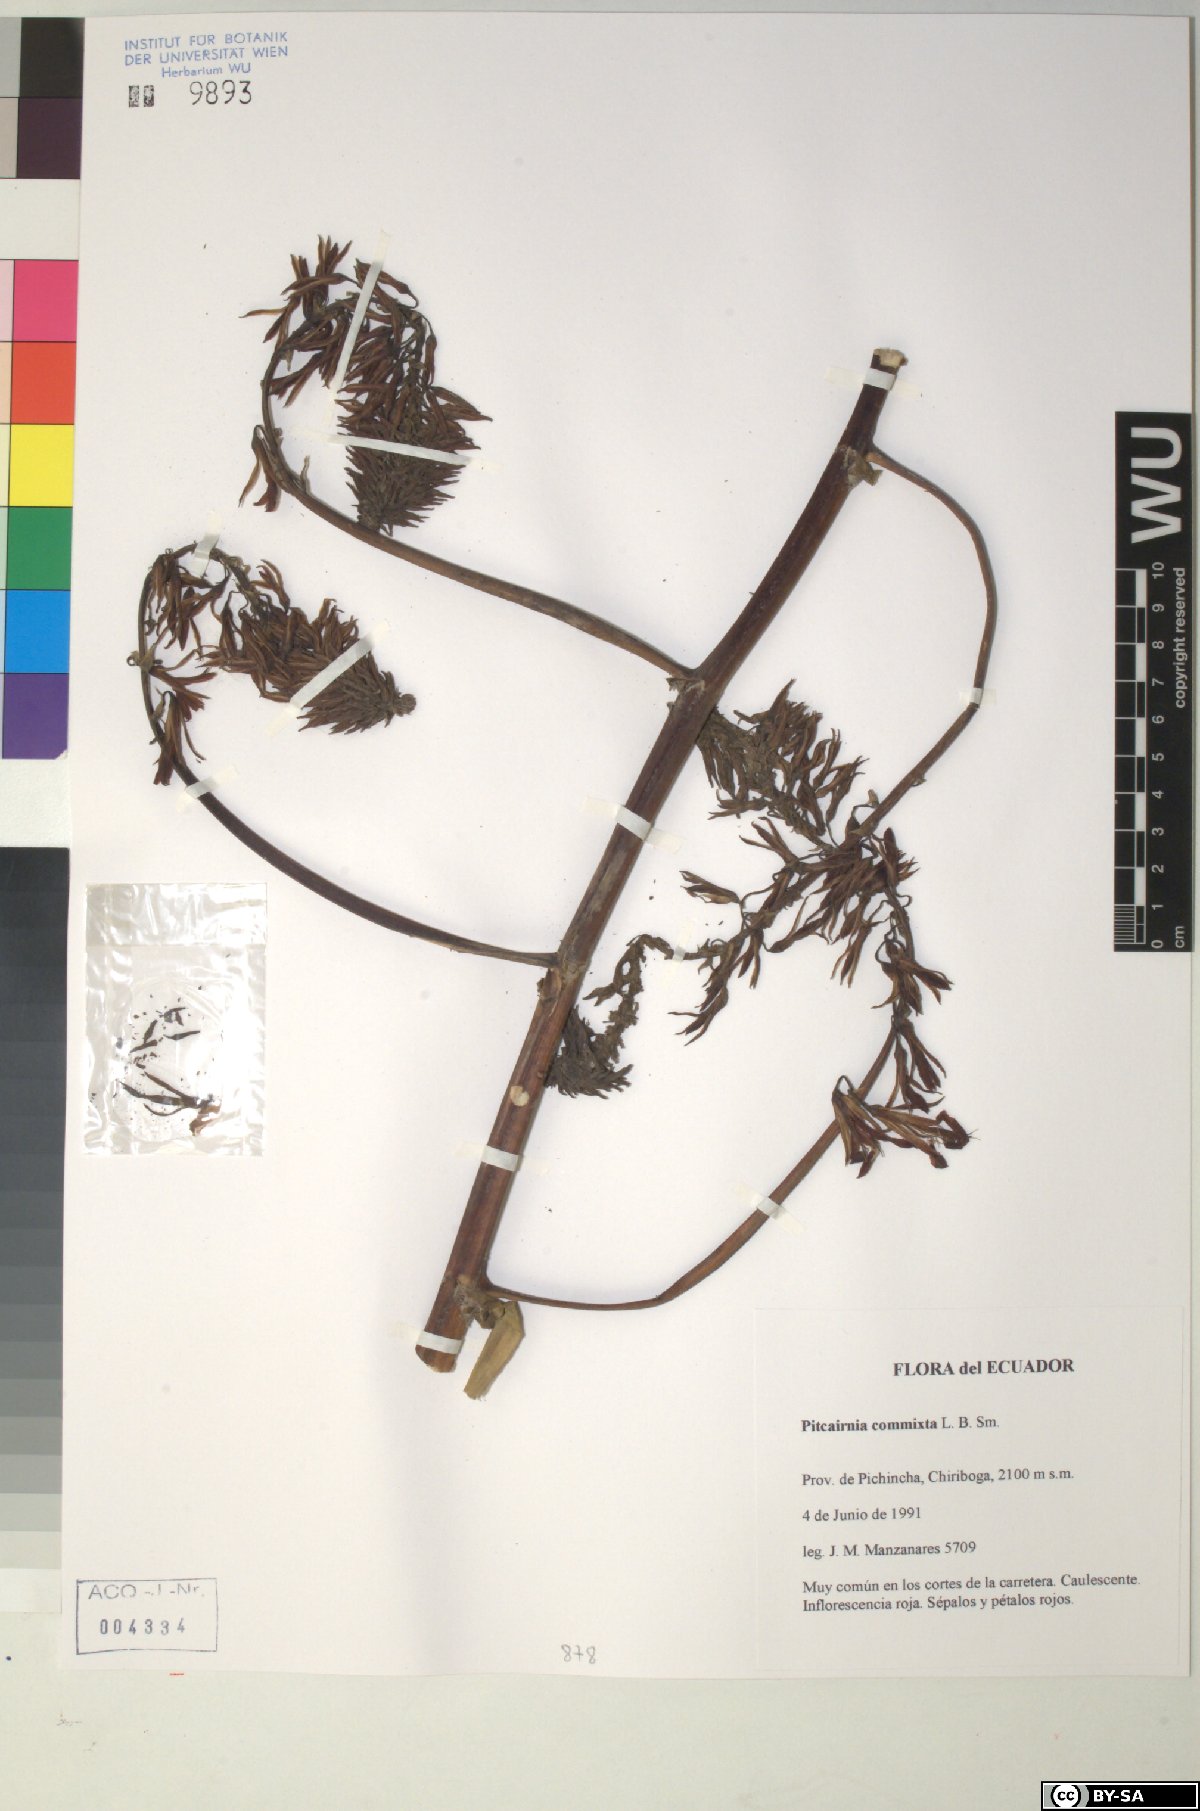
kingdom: Plantae
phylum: Tracheophyta
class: Liliopsida
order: Poales
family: Bromeliaceae
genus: Pitcairnia
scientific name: Pitcairnia commixta
